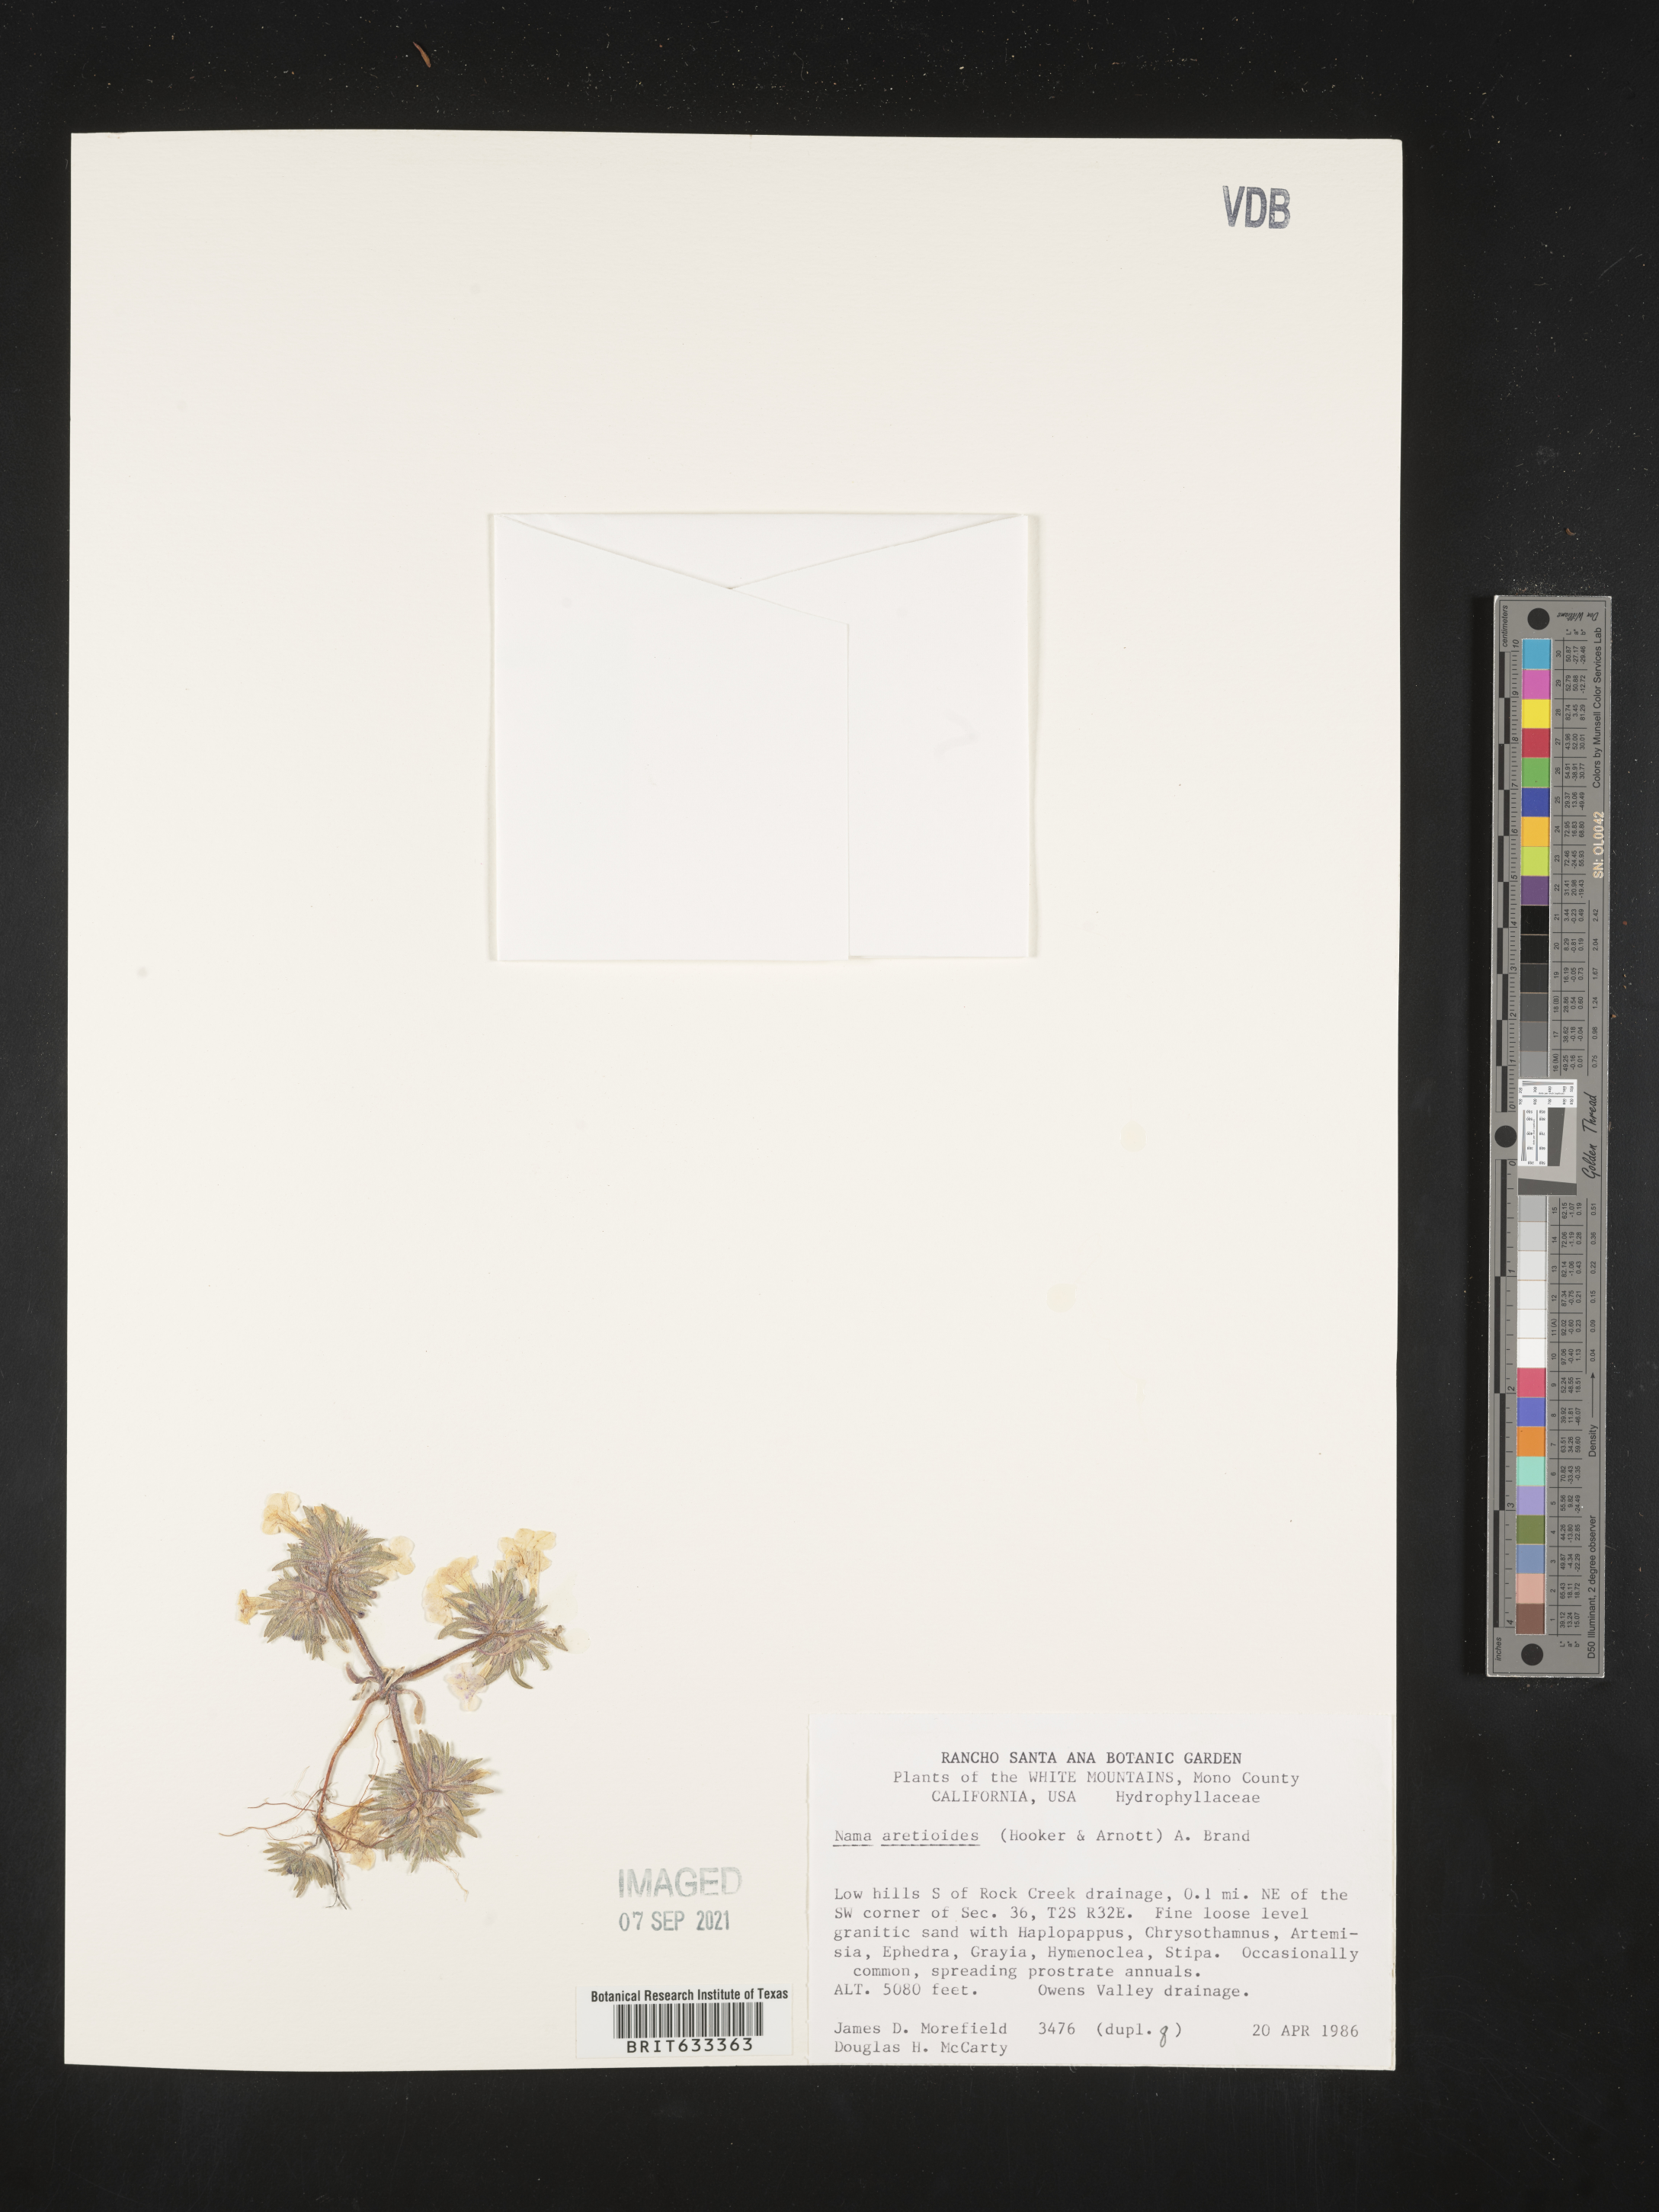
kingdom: Plantae
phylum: Tracheophyta
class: Magnoliopsida
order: Boraginales
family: Namaceae
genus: Nama
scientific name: Nama aretioides
